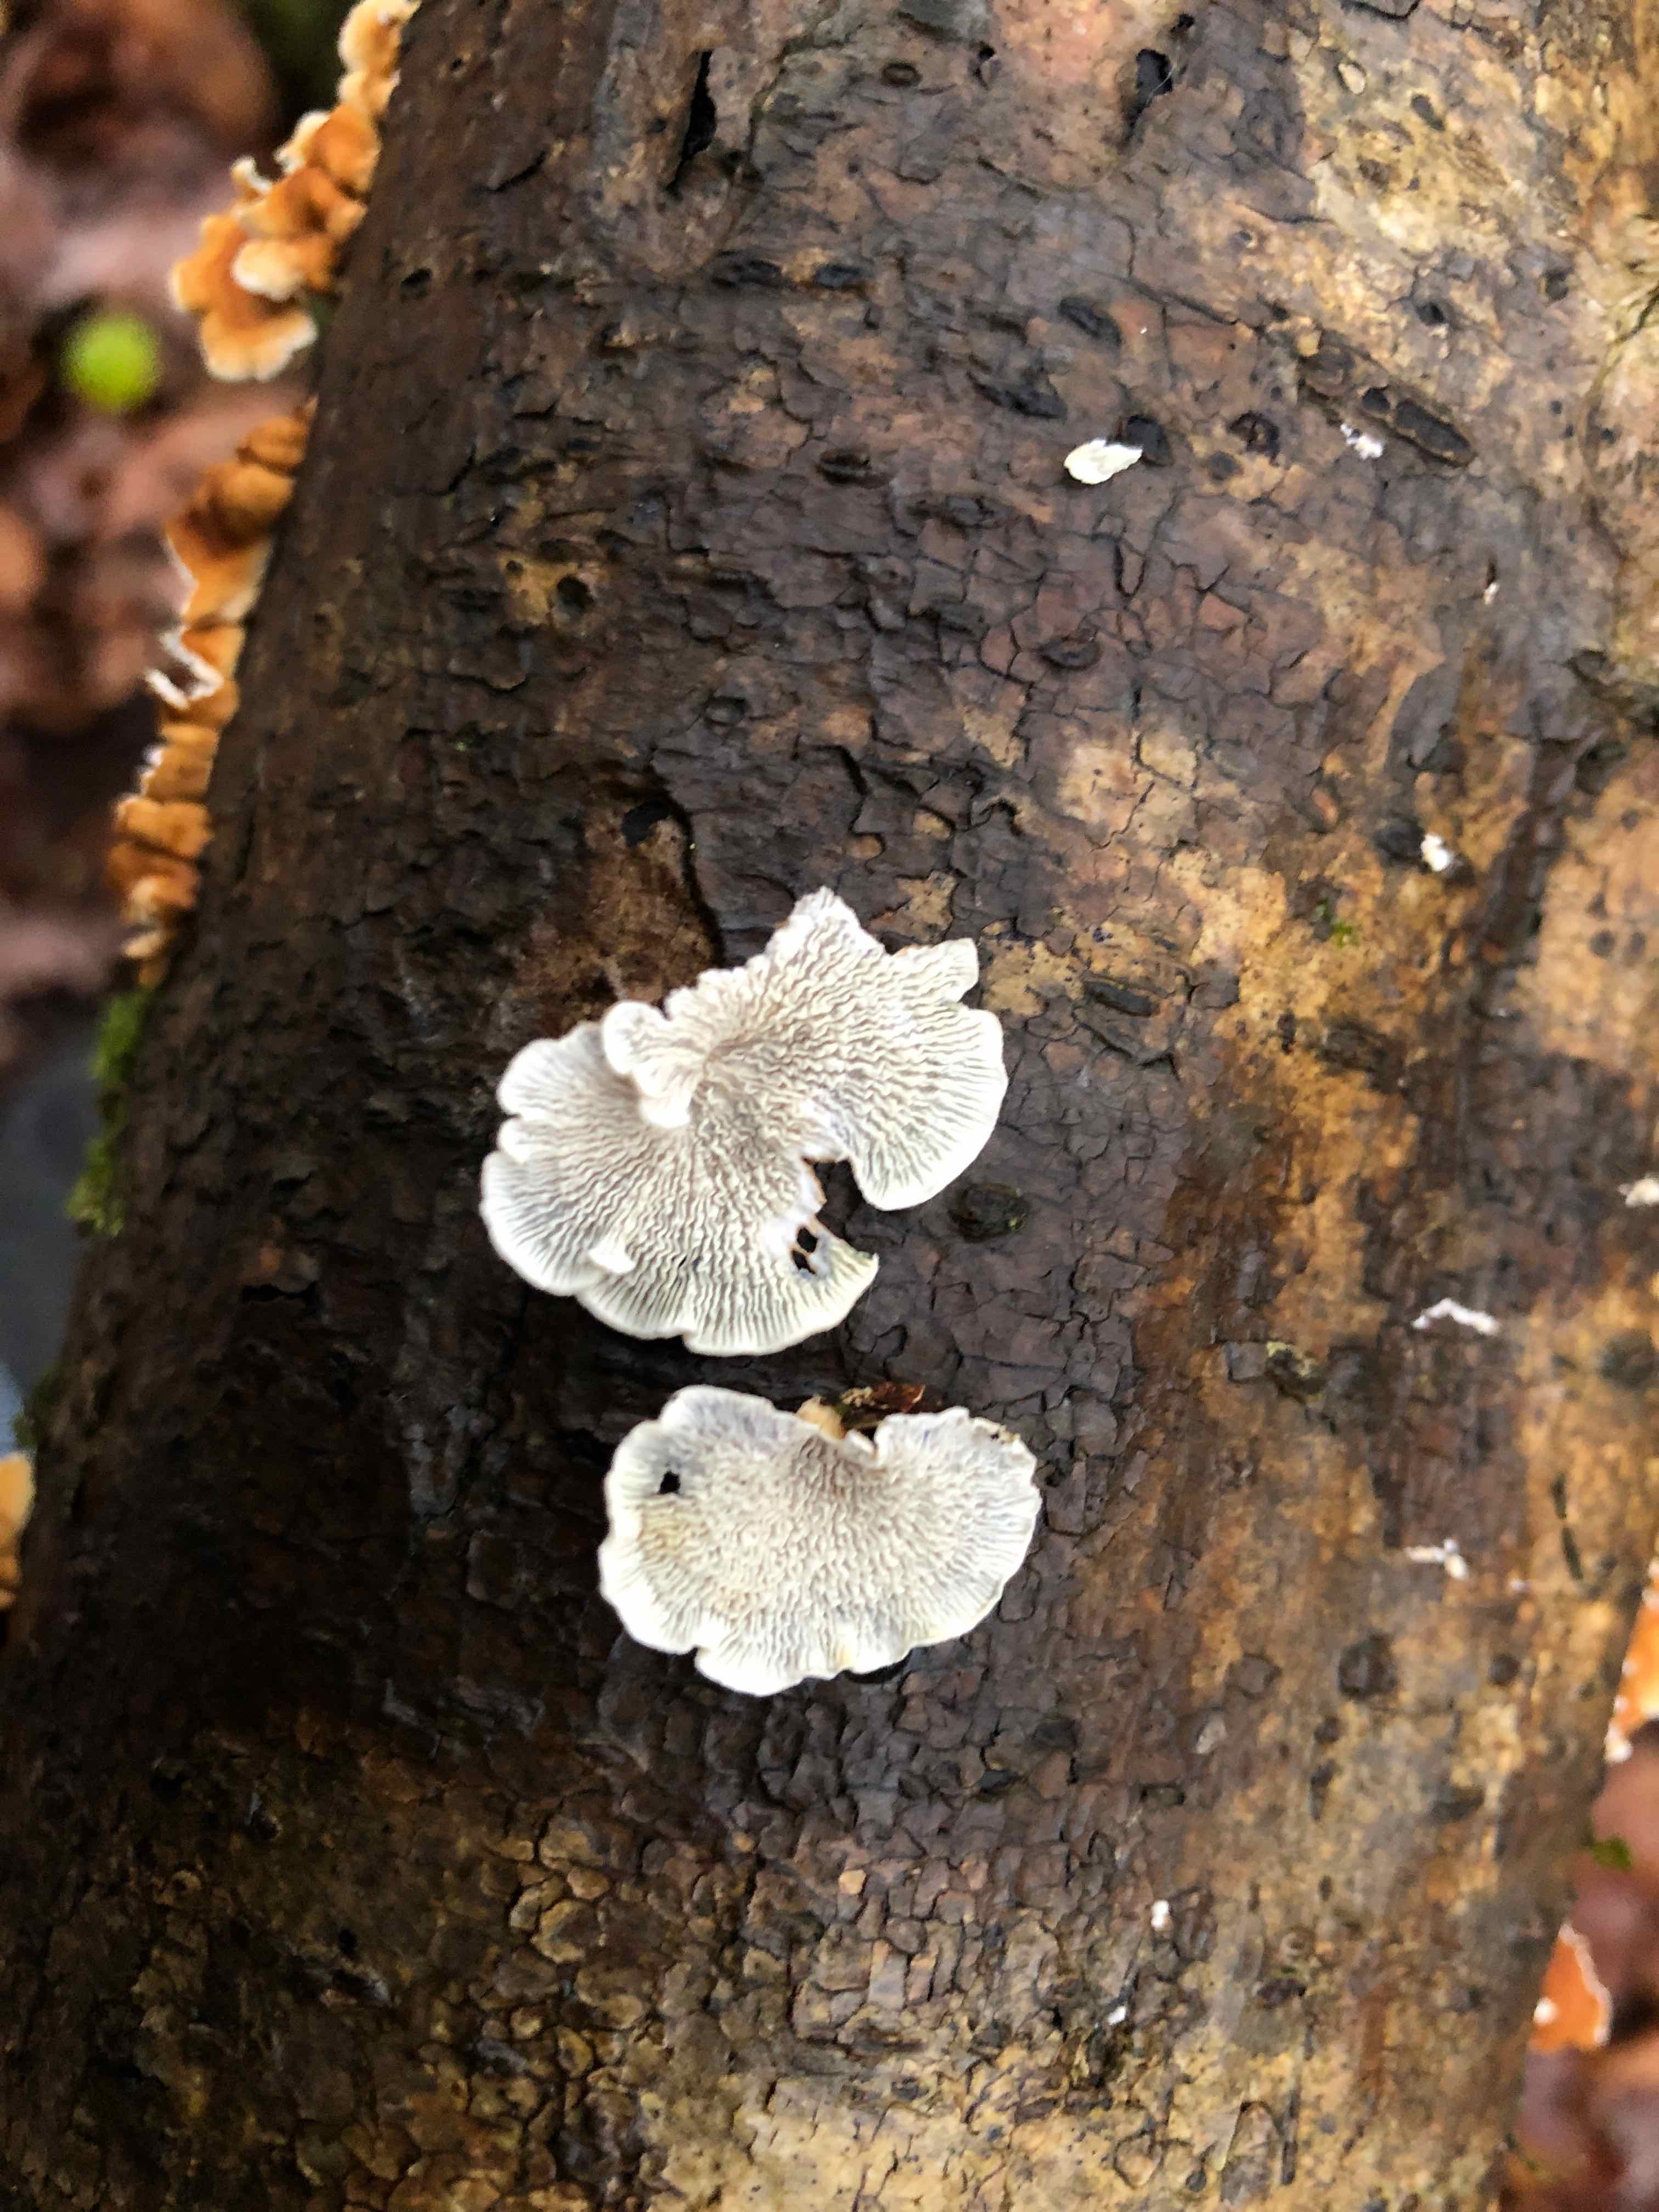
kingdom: Fungi
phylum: Basidiomycota
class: Agaricomycetes
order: Amylocorticiales
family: Amylocorticiaceae
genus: Plicaturopsis
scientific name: Plicaturopsis crispa
